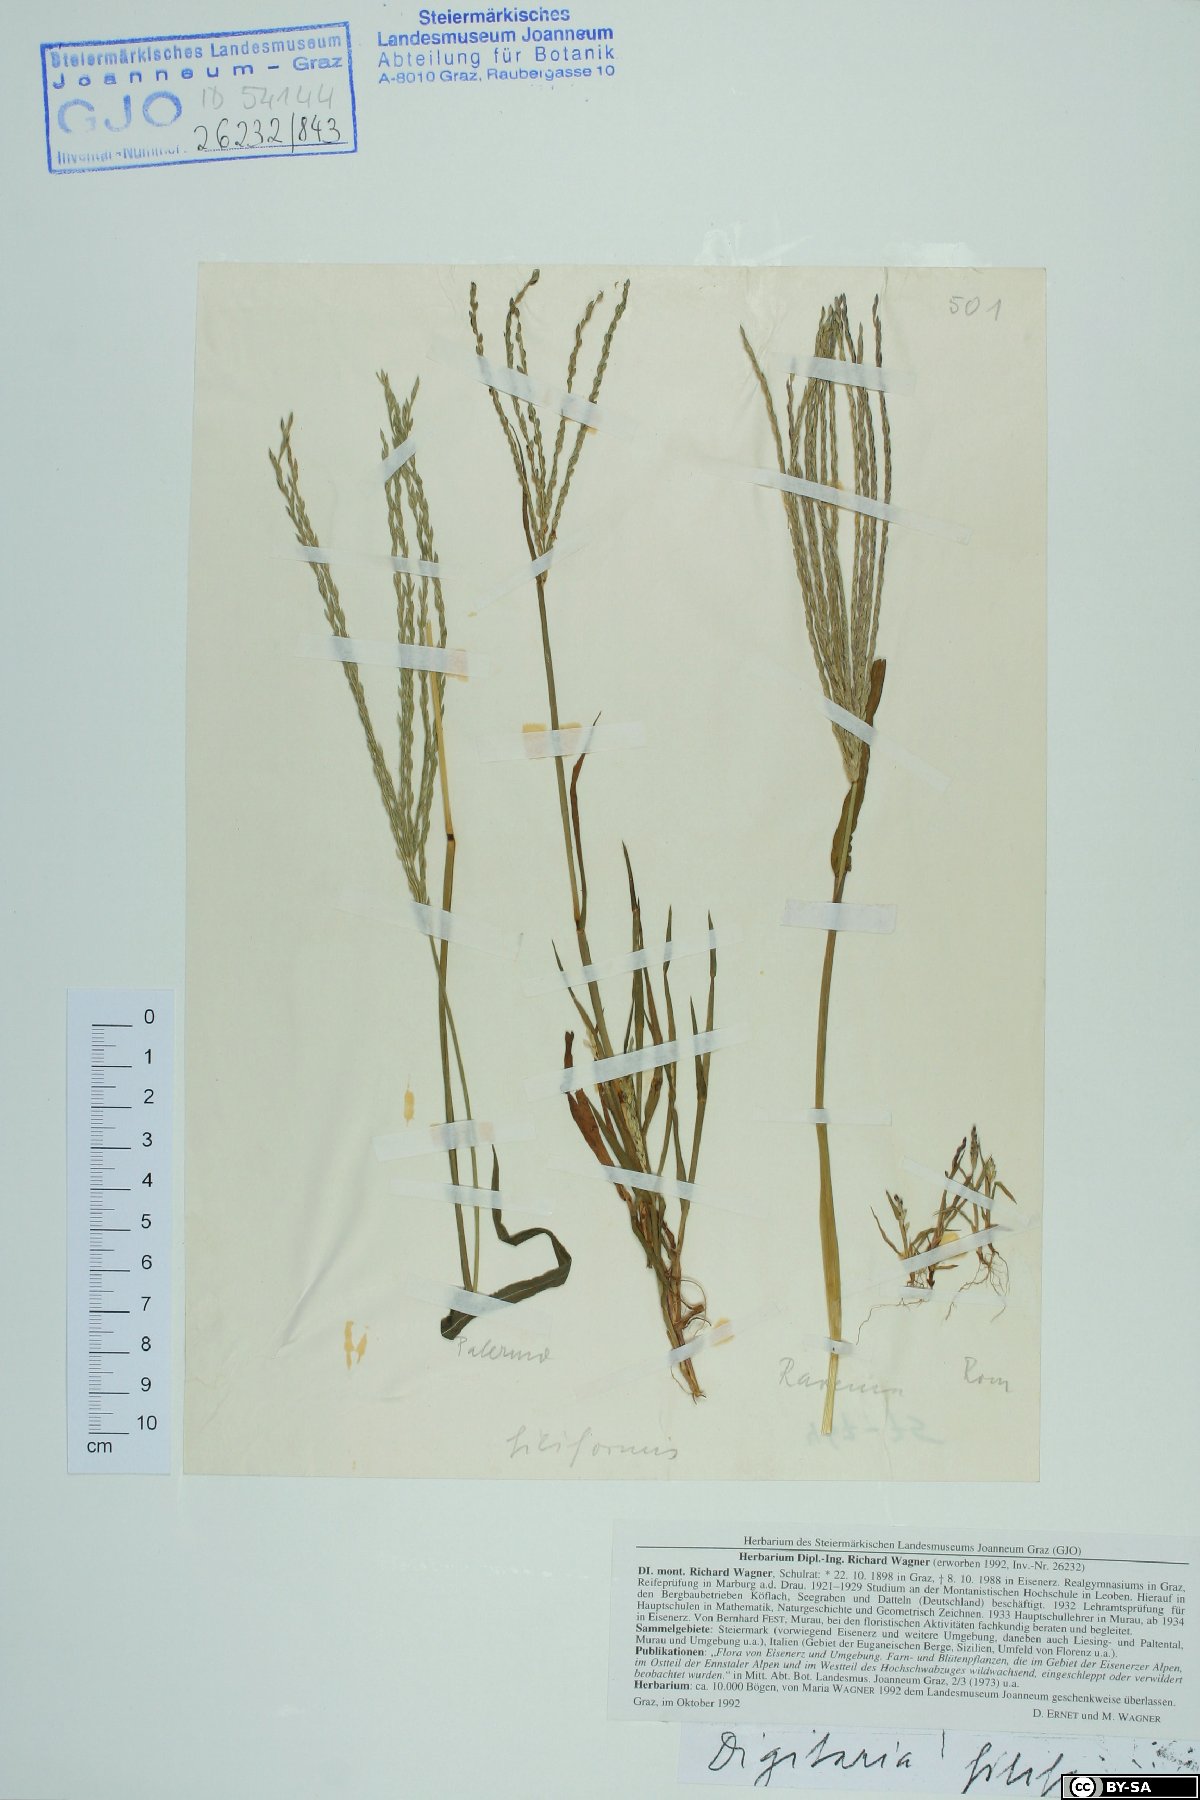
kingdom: Plantae
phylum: Tracheophyta
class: Liliopsida
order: Poales
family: Poaceae
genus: Digitaria
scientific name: Digitaria filiformis
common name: Slender crabgrass
